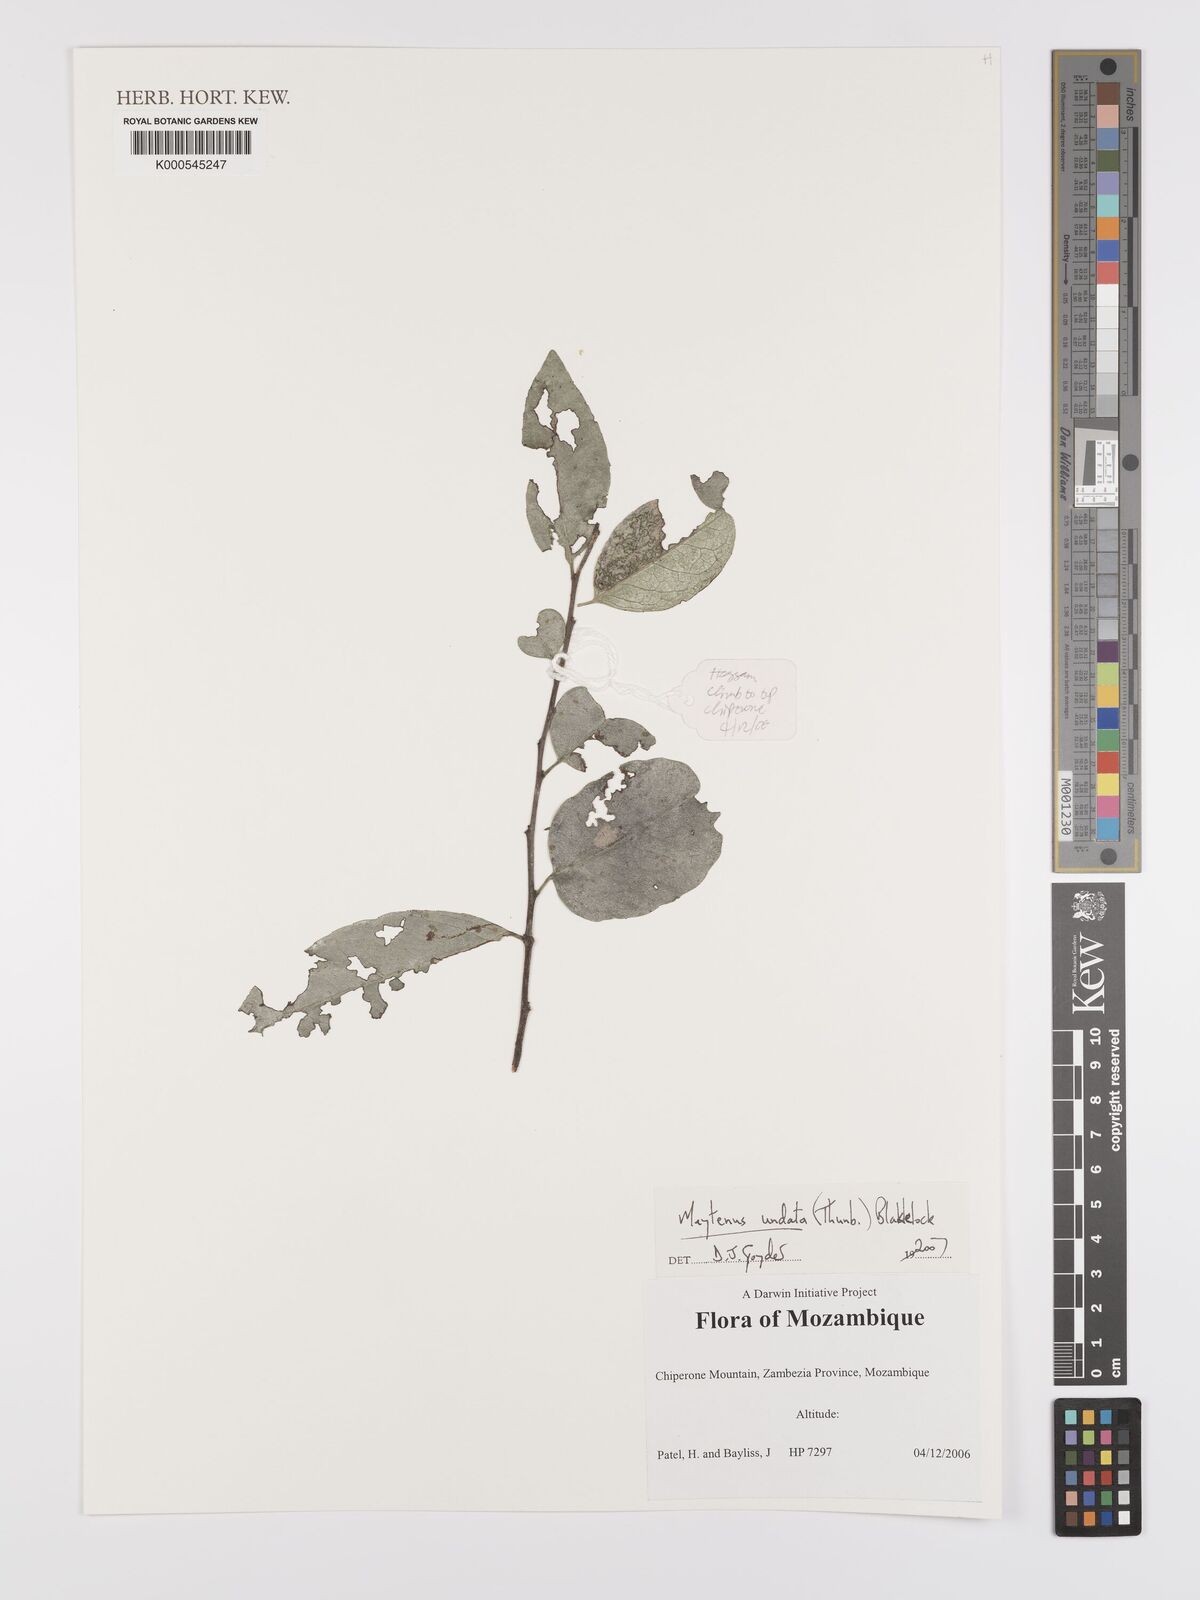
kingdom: Plantae
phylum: Tracheophyta
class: Magnoliopsida
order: Celastrales
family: Celastraceae
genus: Gymnosporia
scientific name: Gymnosporia undata
